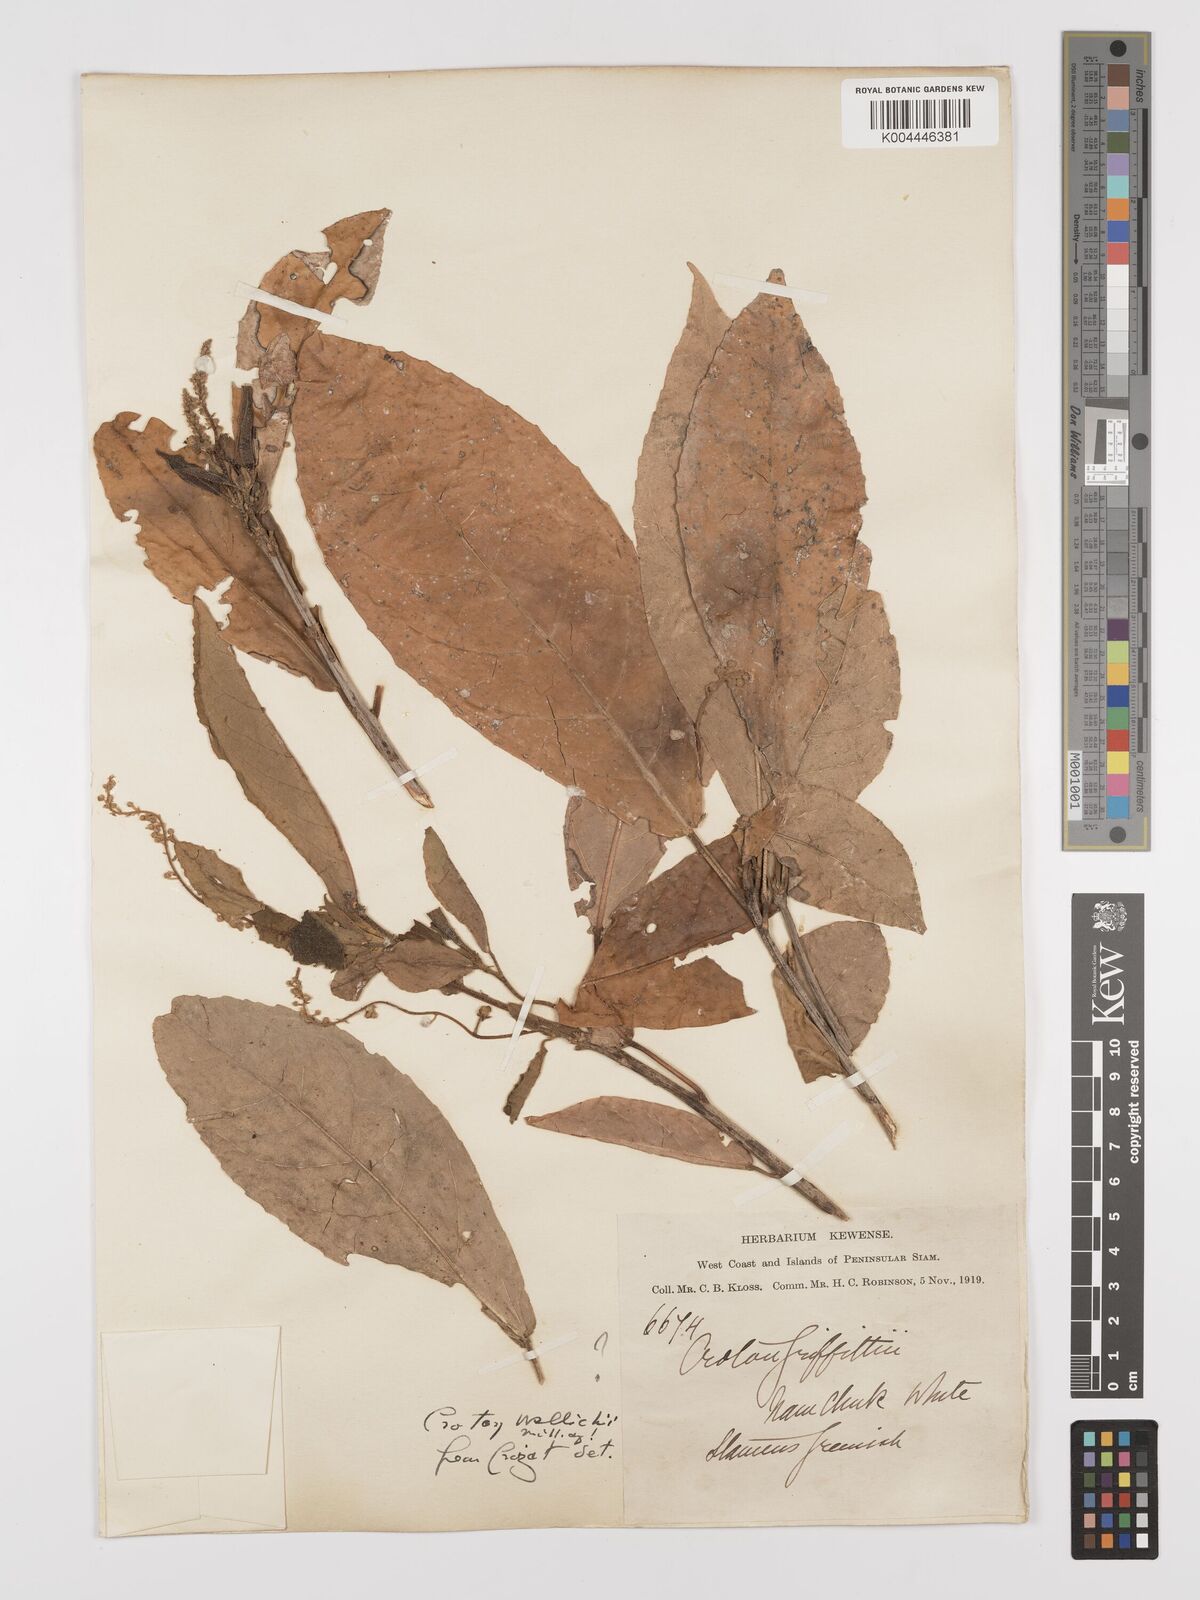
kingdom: Plantae
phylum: Tracheophyta
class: Magnoliopsida
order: Malpighiales
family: Euphorbiaceae
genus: Croton
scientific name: Croton wallichii
